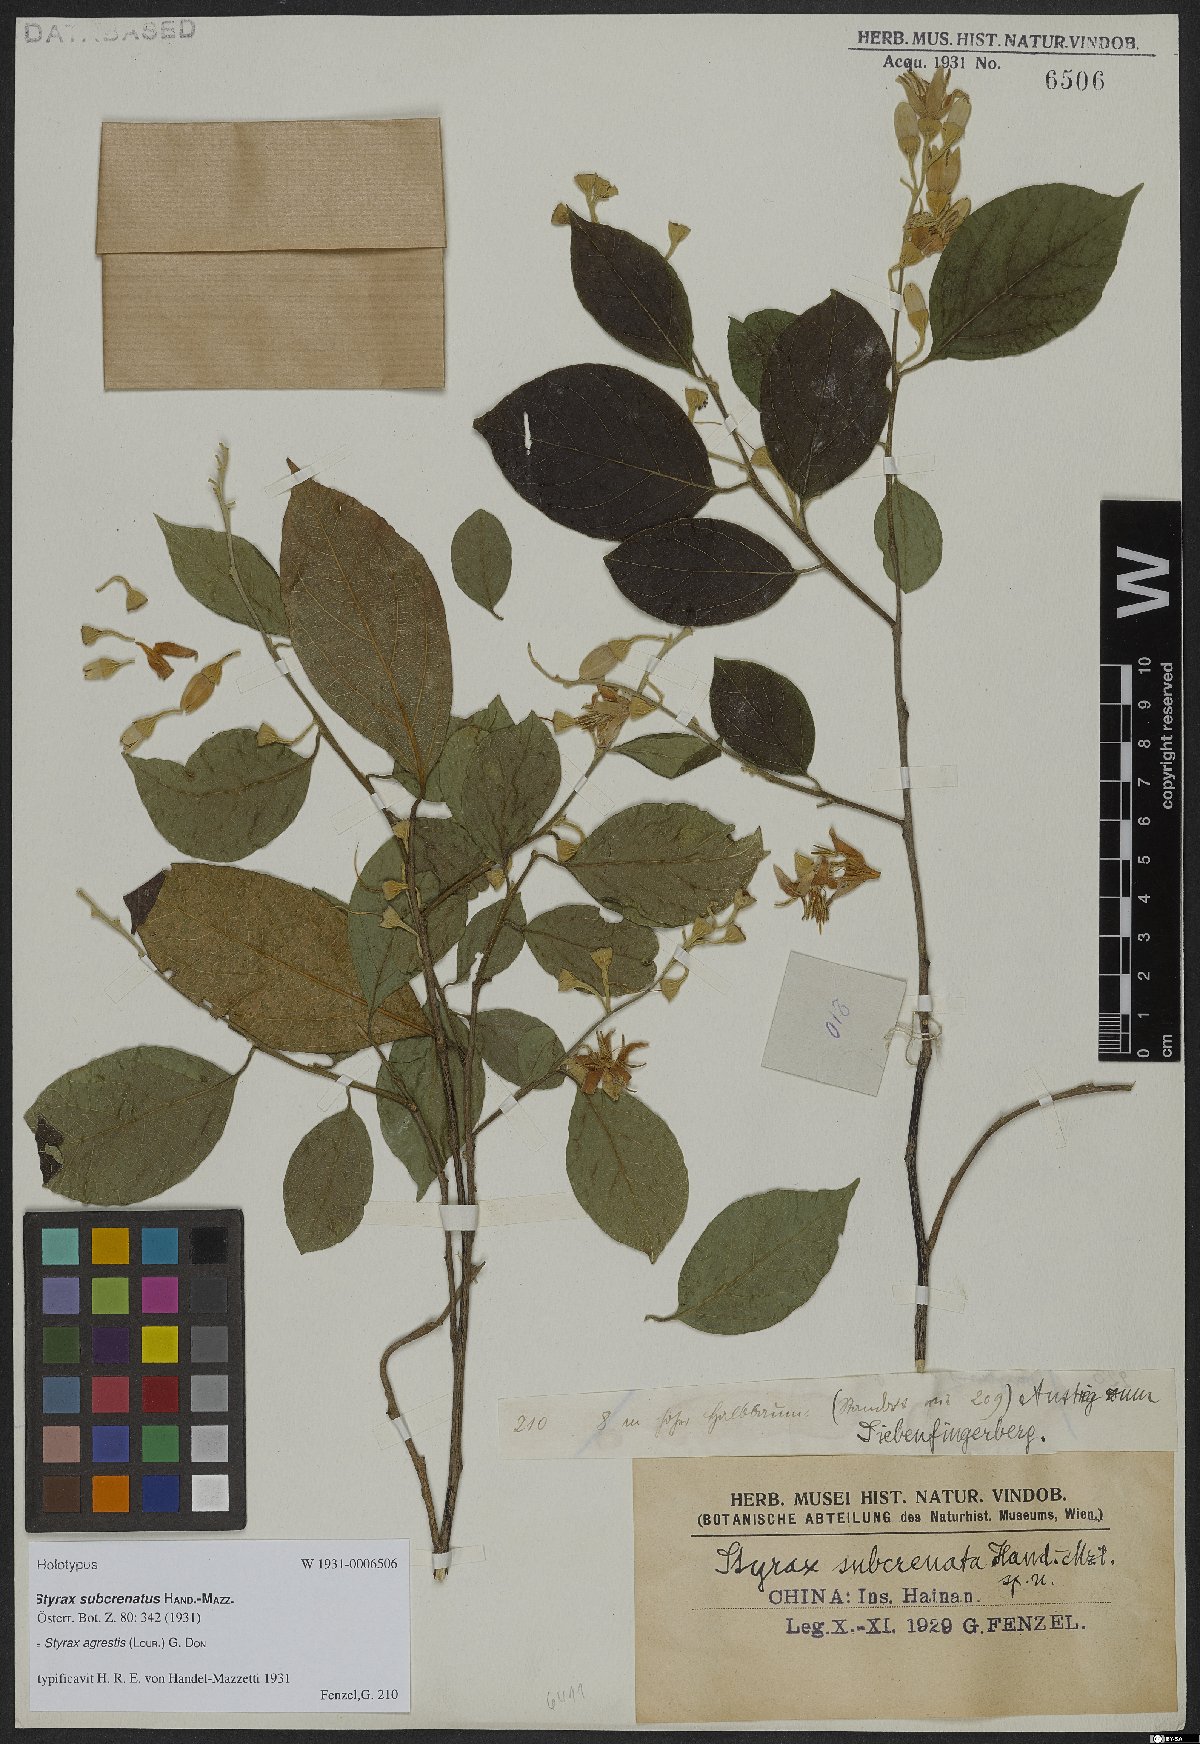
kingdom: Plantae
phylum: Tracheophyta
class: Magnoliopsida
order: Ericales
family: Styracaceae
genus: Styrax
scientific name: Styrax agrestis
